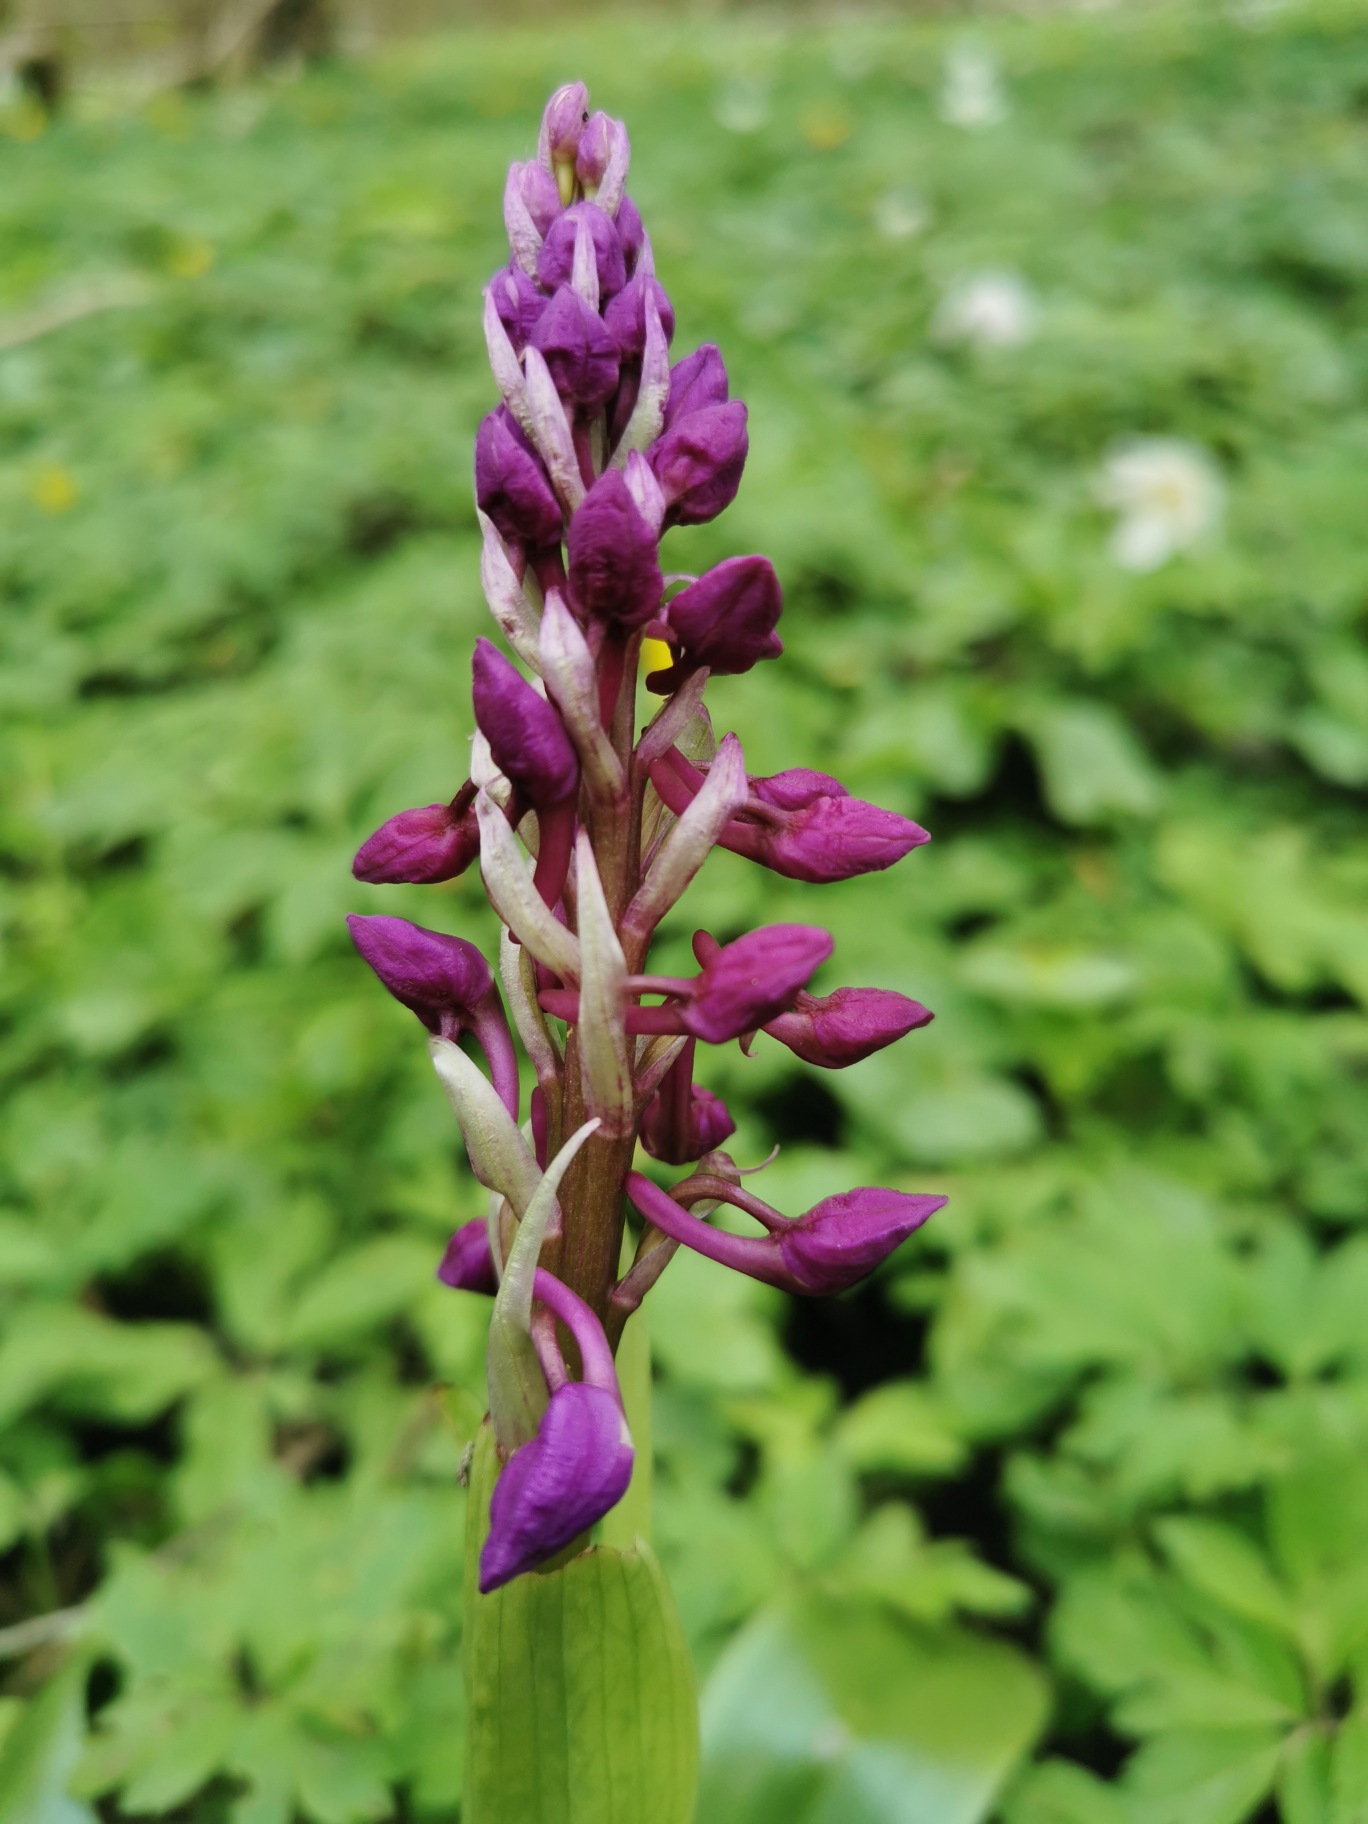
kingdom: Plantae
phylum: Tracheophyta
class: Liliopsida
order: Asparagales
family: Orchidaceae
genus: Orchis
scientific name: Orchis mascula
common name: Tyndakset gøgeurt
